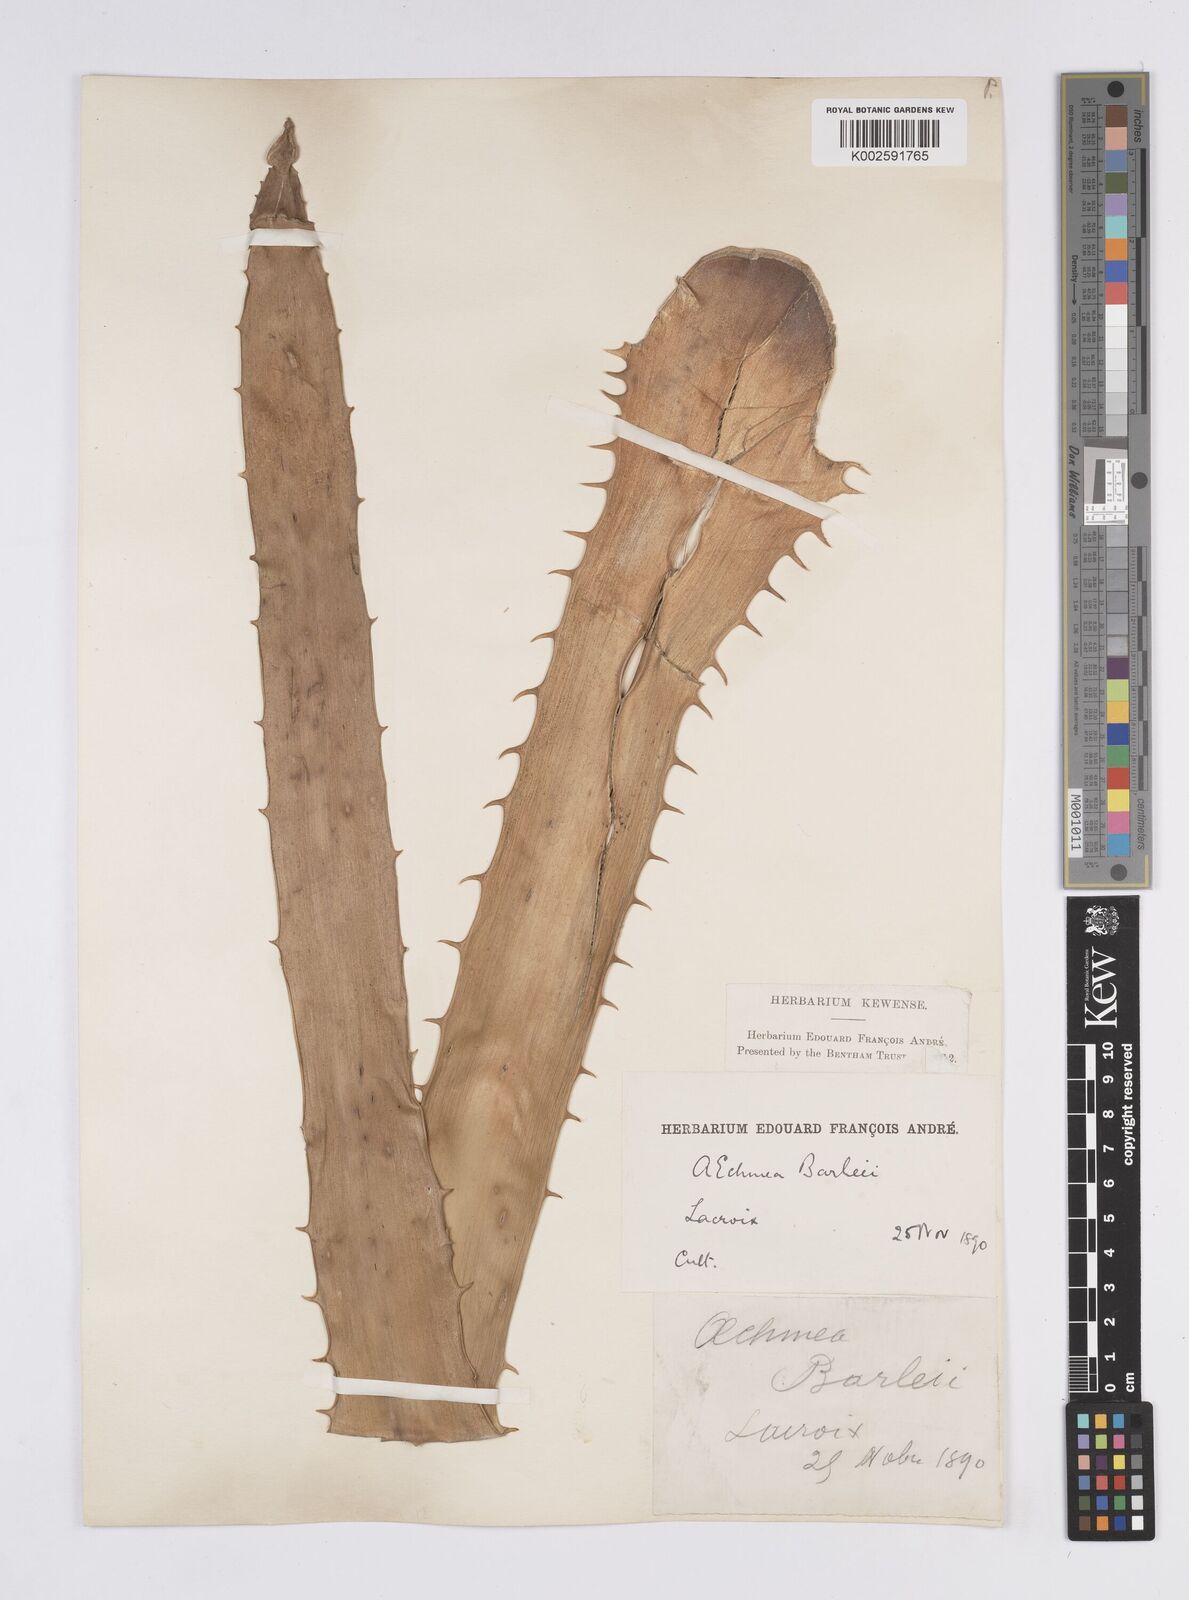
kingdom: Plantae
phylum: Tracheophyta
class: Liliopsida
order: Poales
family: Bromeliaceae
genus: Aechmea
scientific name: Aechmea bracteata
